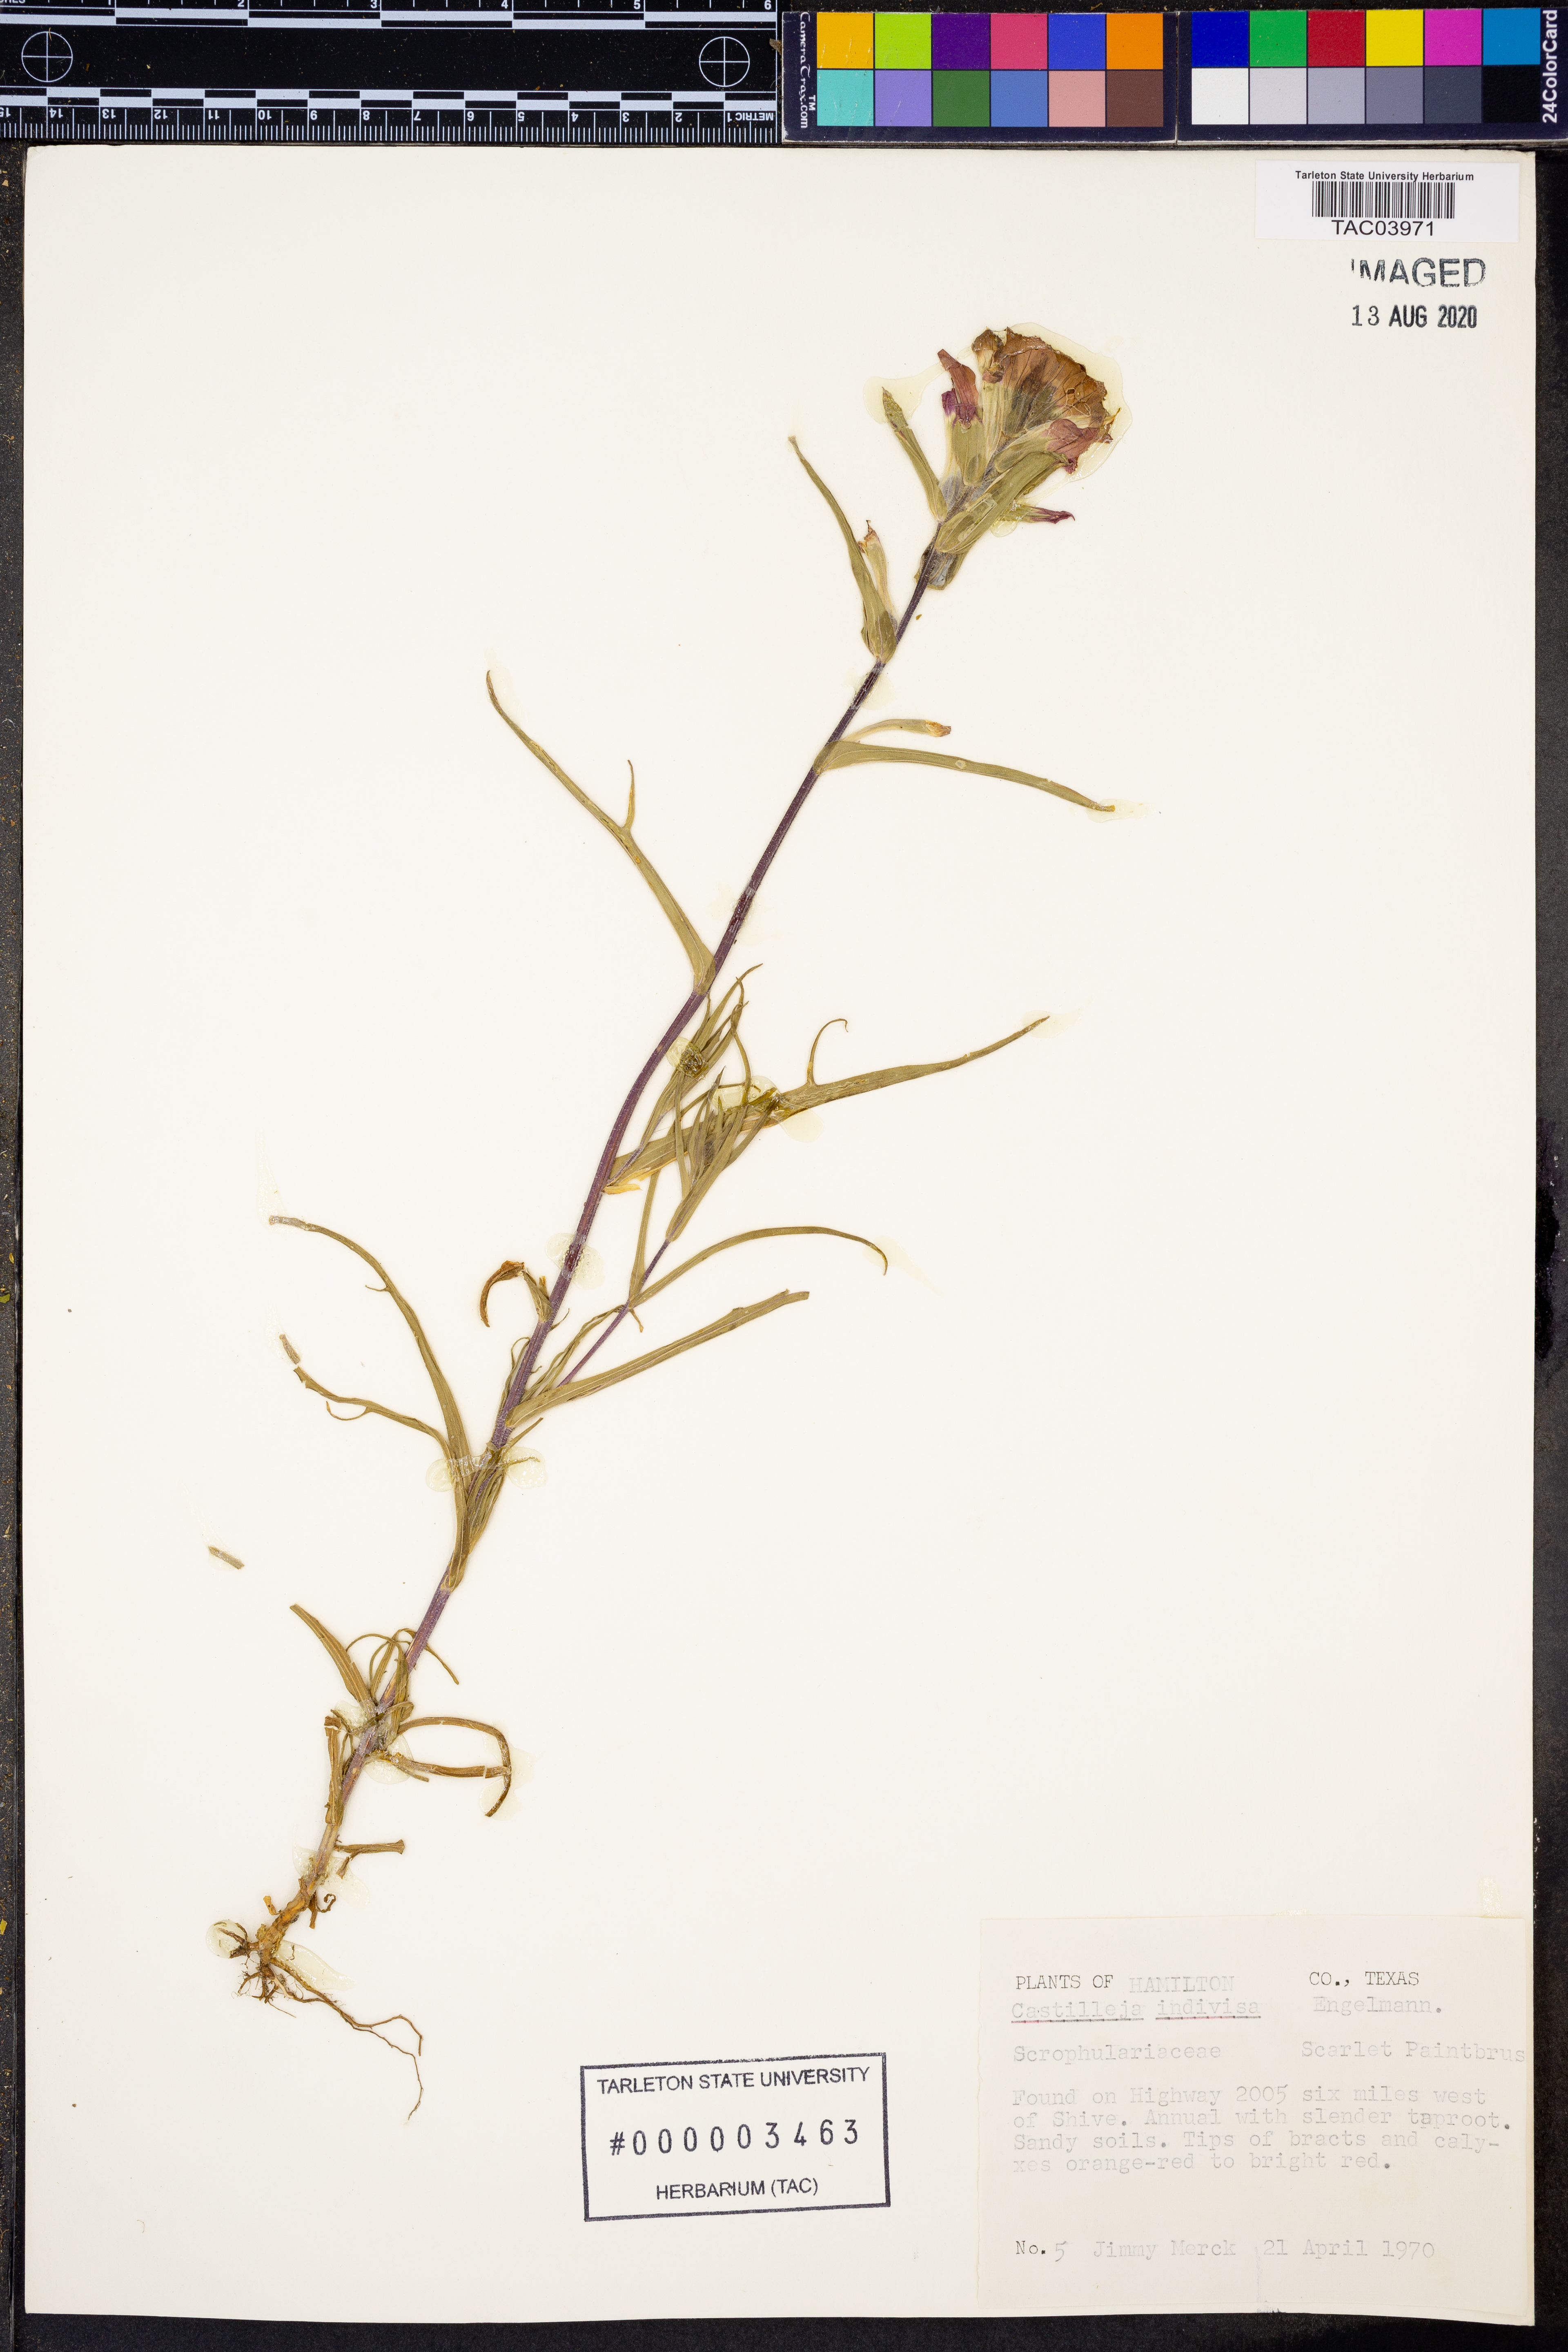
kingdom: Plantae
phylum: Tracheophyta
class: Magnoliopsida
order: Lamiales
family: Orobanchaceae
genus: Castilleja
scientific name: Castilleja indivisa
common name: Texas paintbrush
